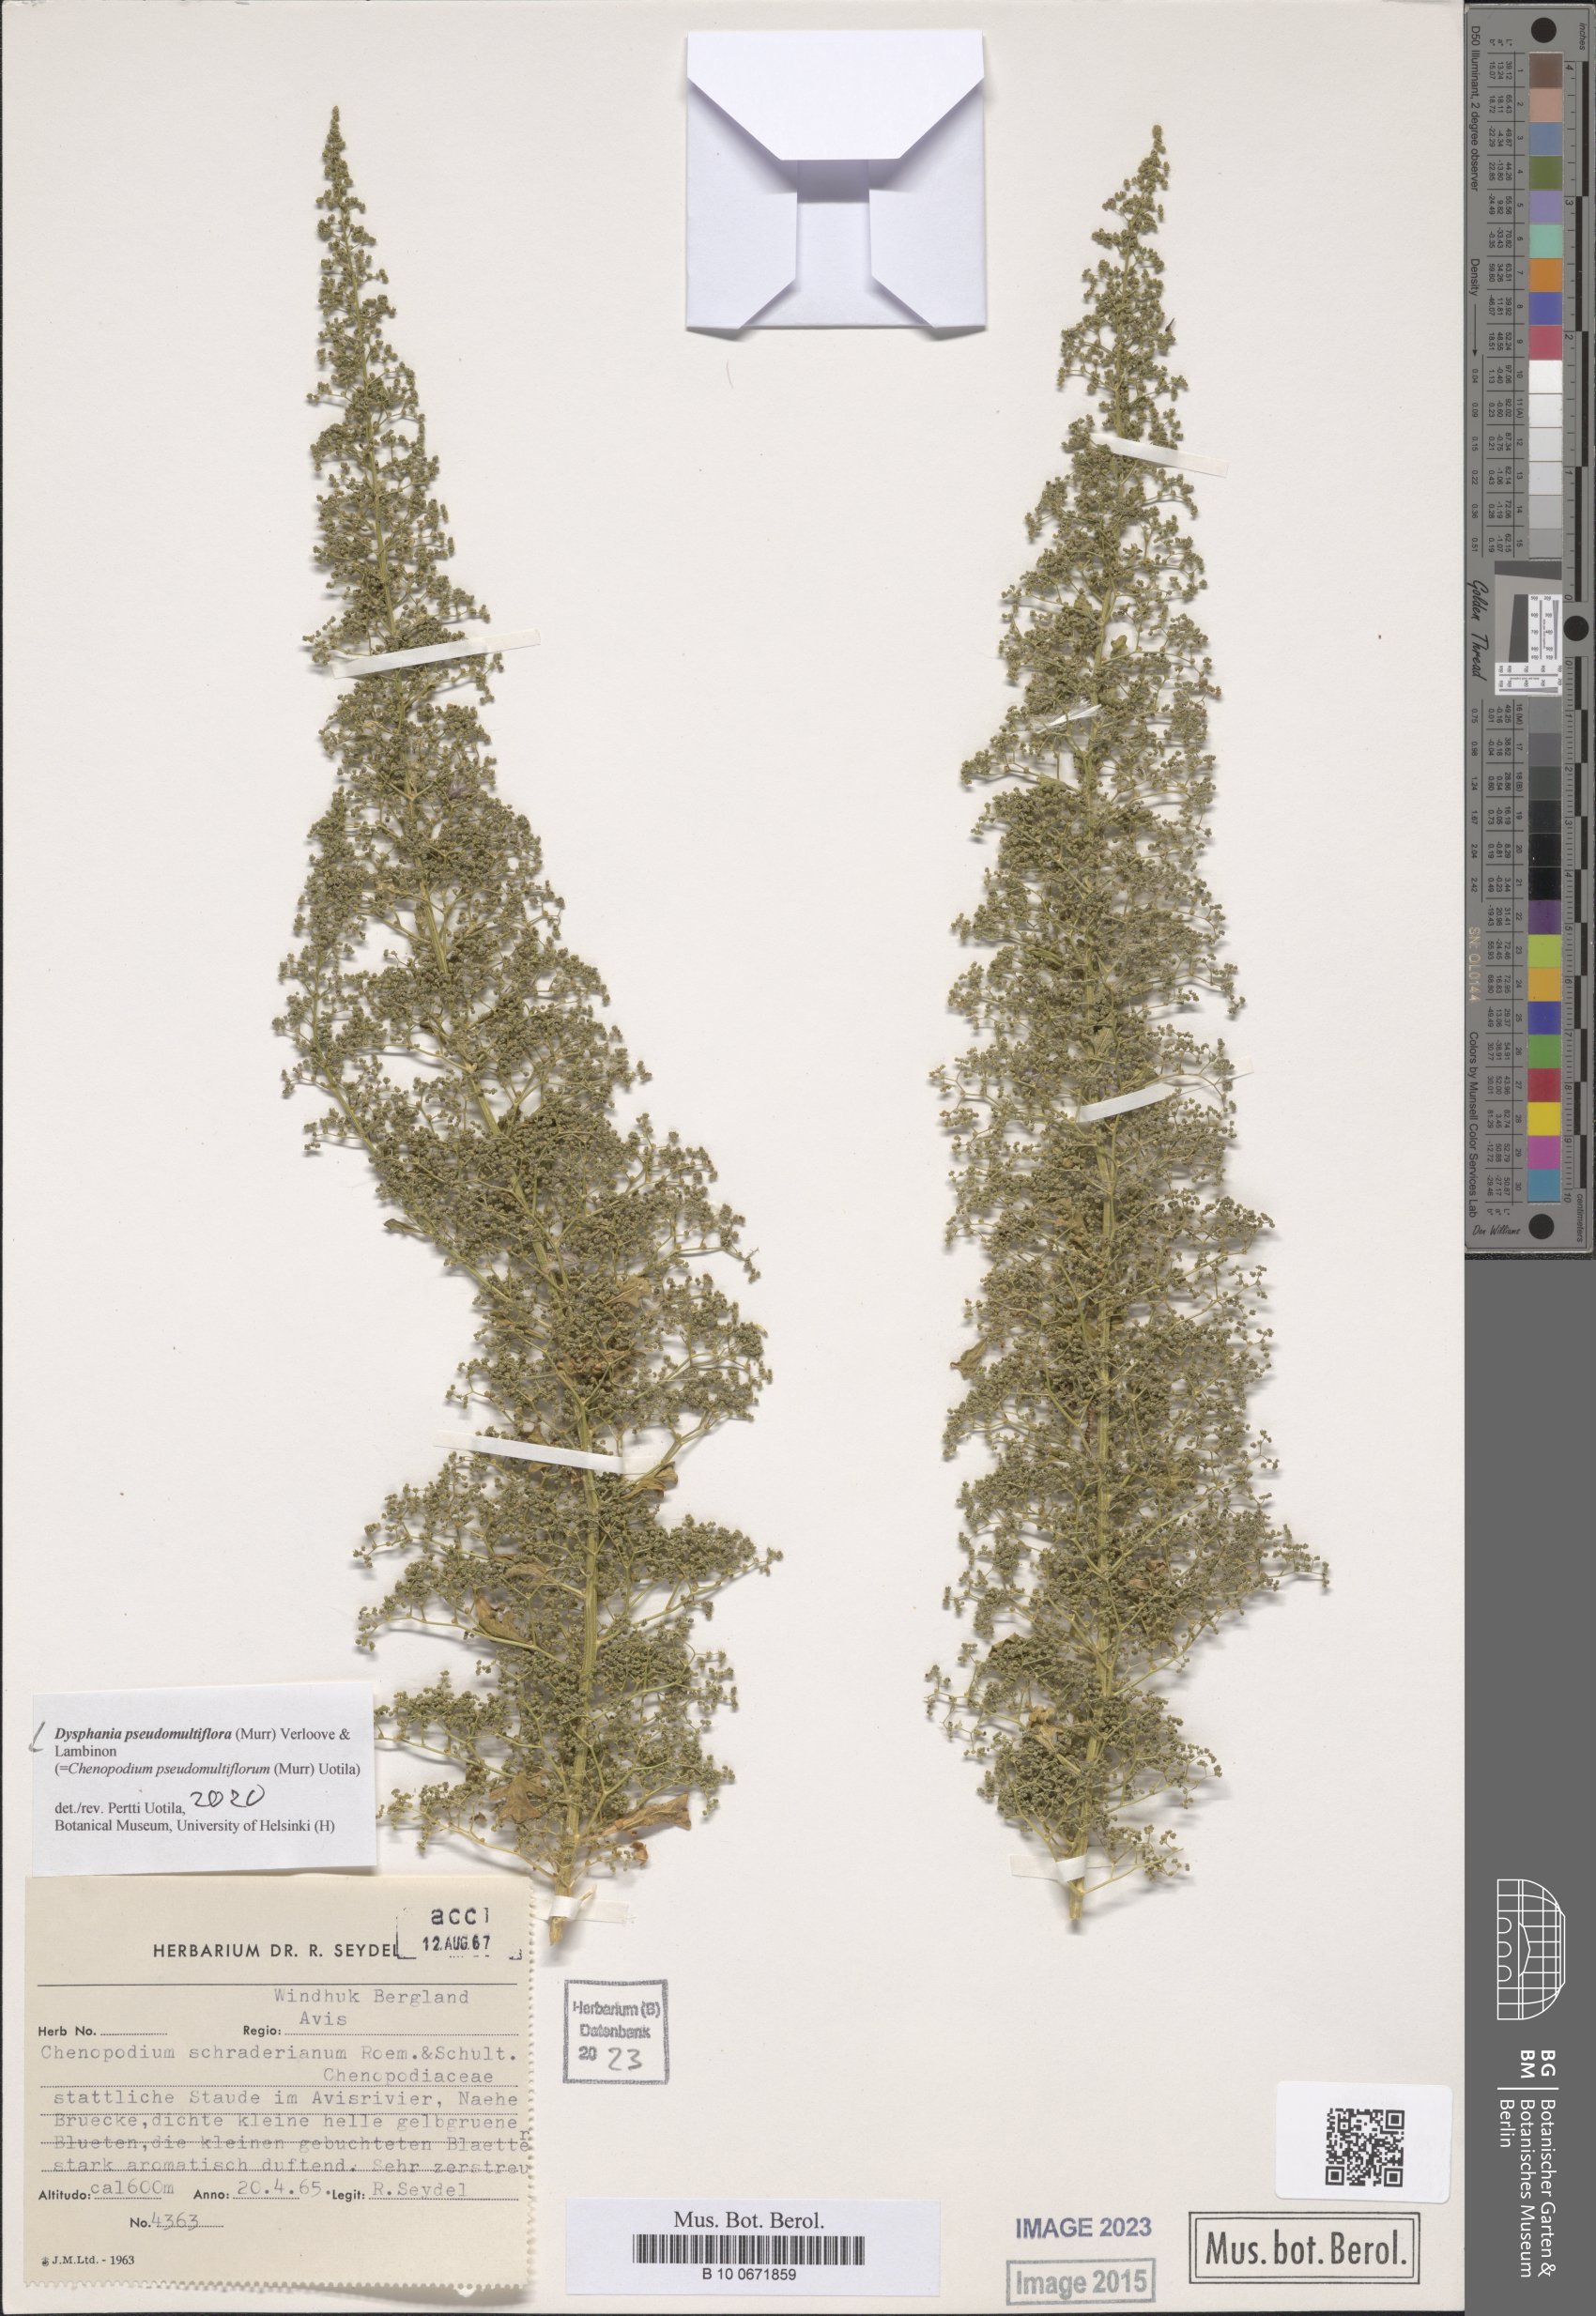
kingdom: Plantae
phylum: Tracheophyta
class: Magnoliopsida
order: Caryophyllales
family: Amaranthaceae
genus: Dysphania
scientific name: Dysphania pseudomultiflora
